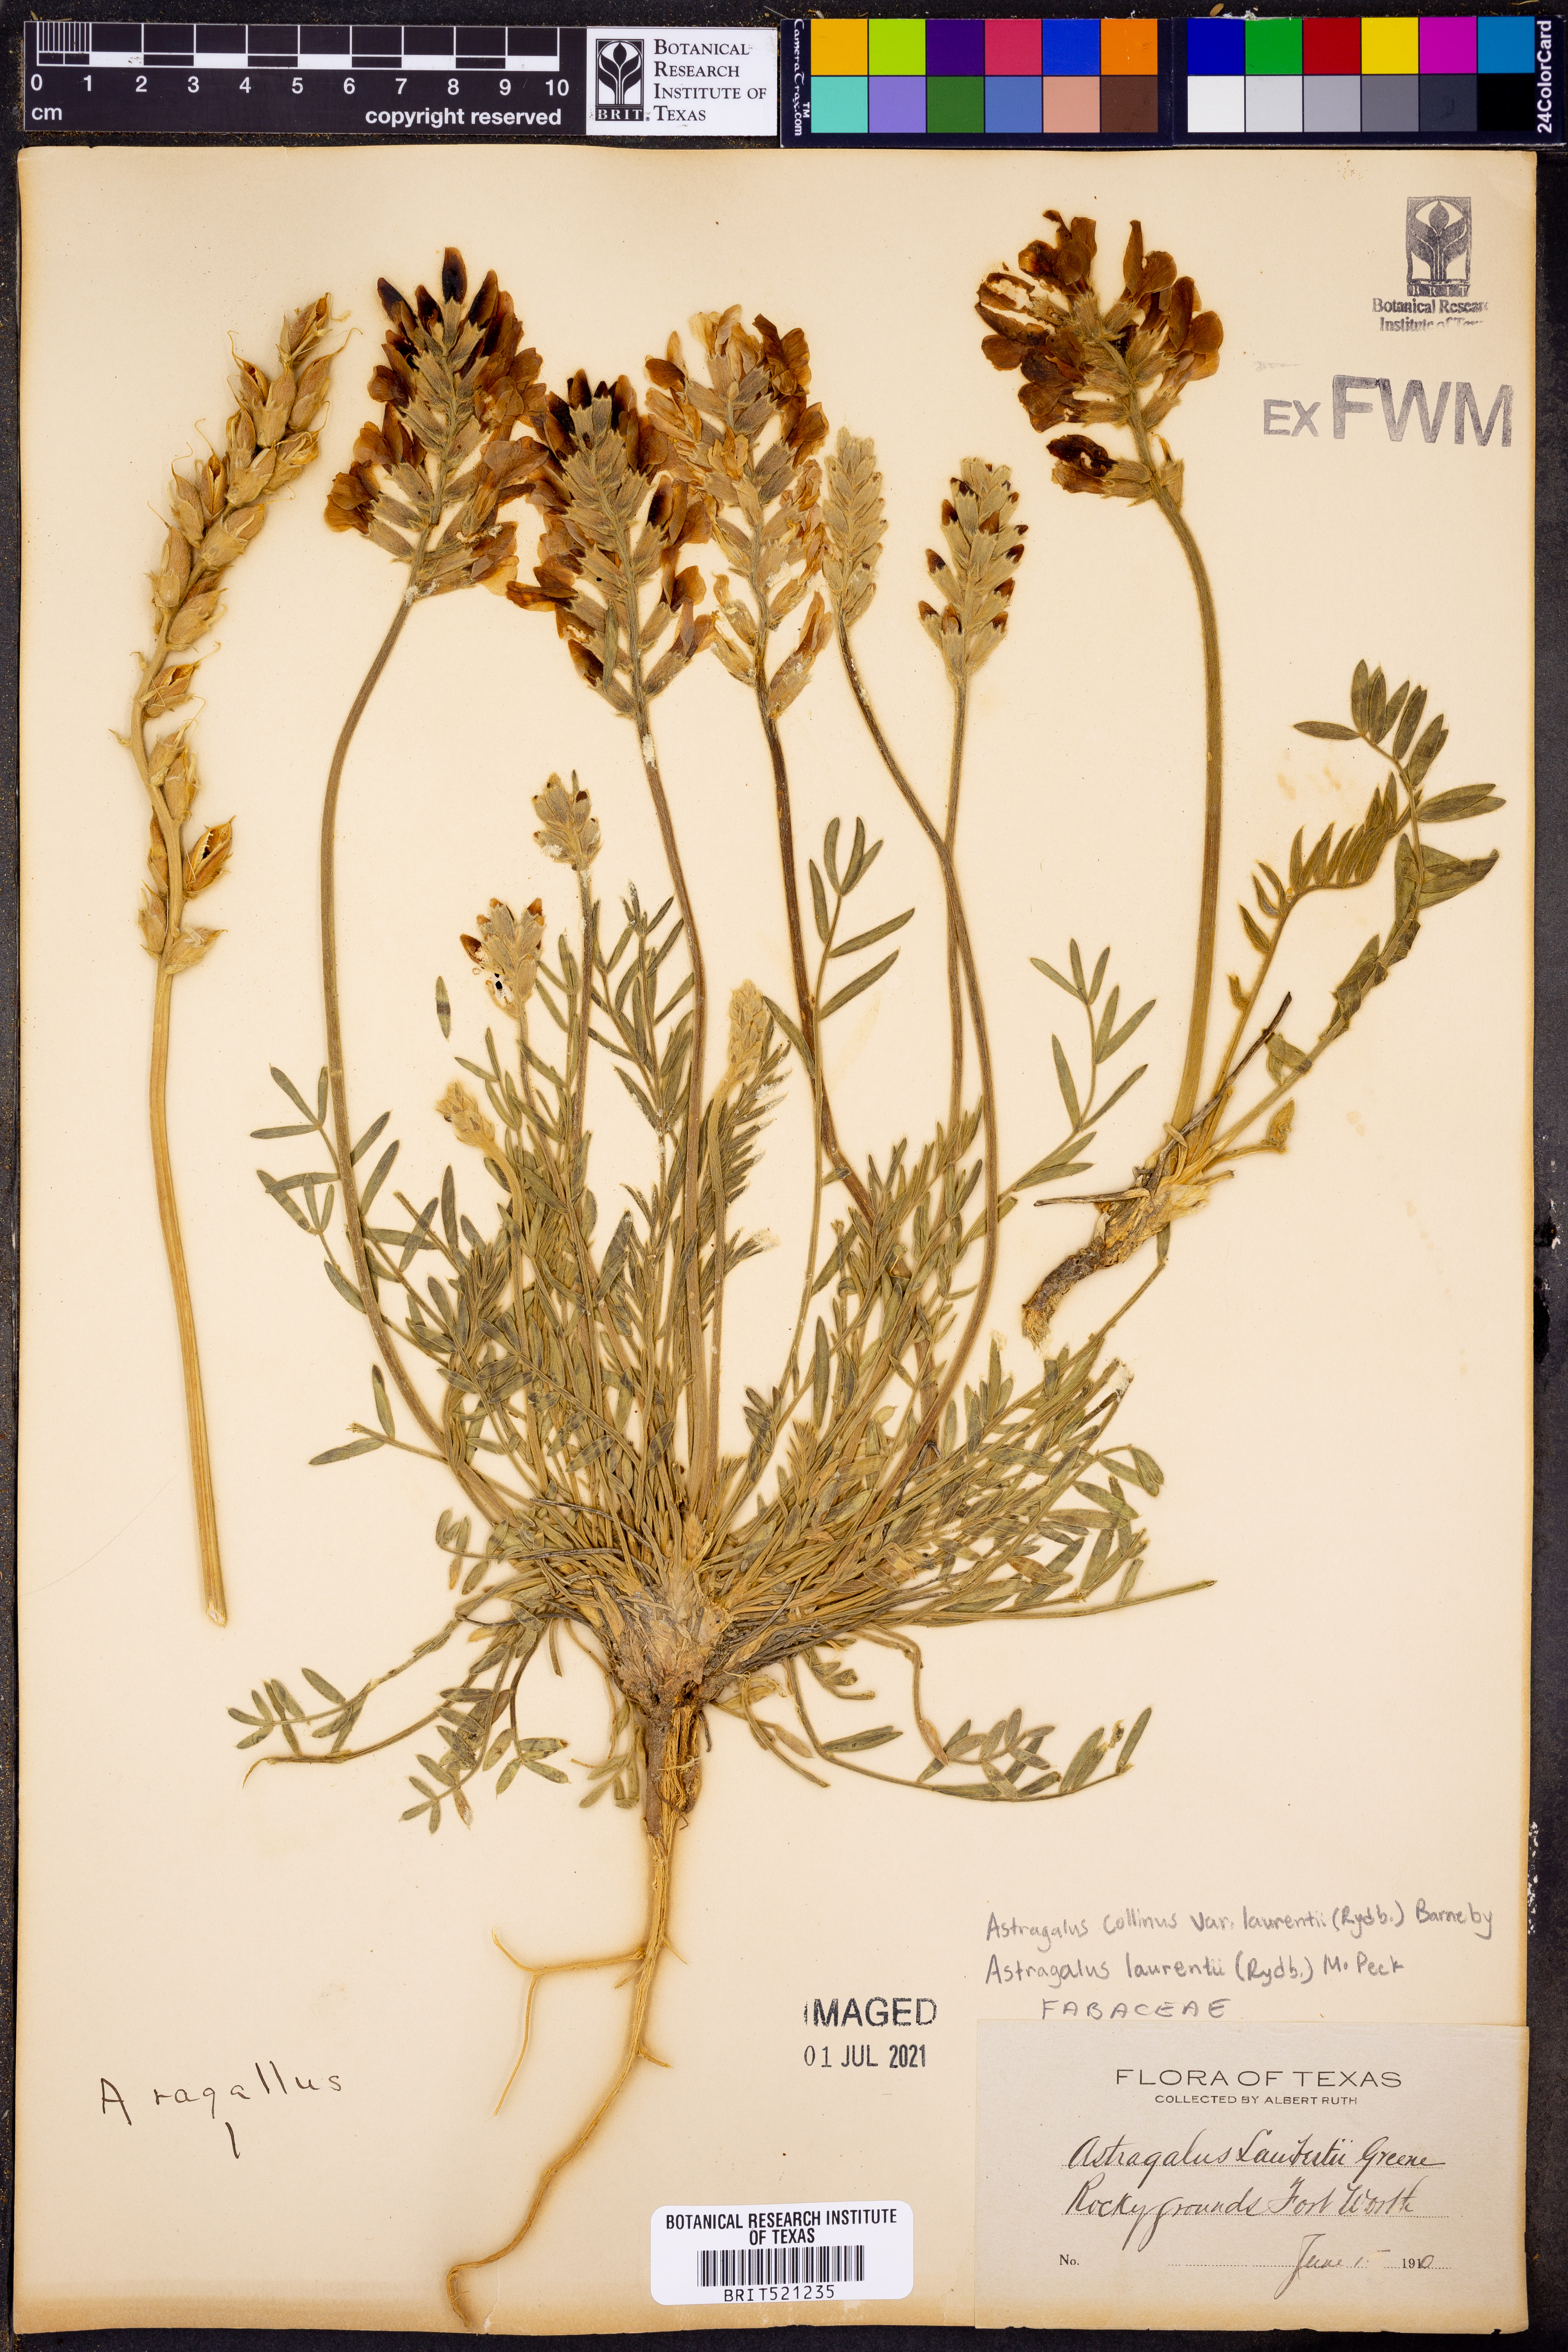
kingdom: Plantae
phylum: Tracheophyta
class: Magnoliopsida
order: Fabales
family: Fabaceae
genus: Oxytropis
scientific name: Oxytropis lambertii
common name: Purple locoweed
